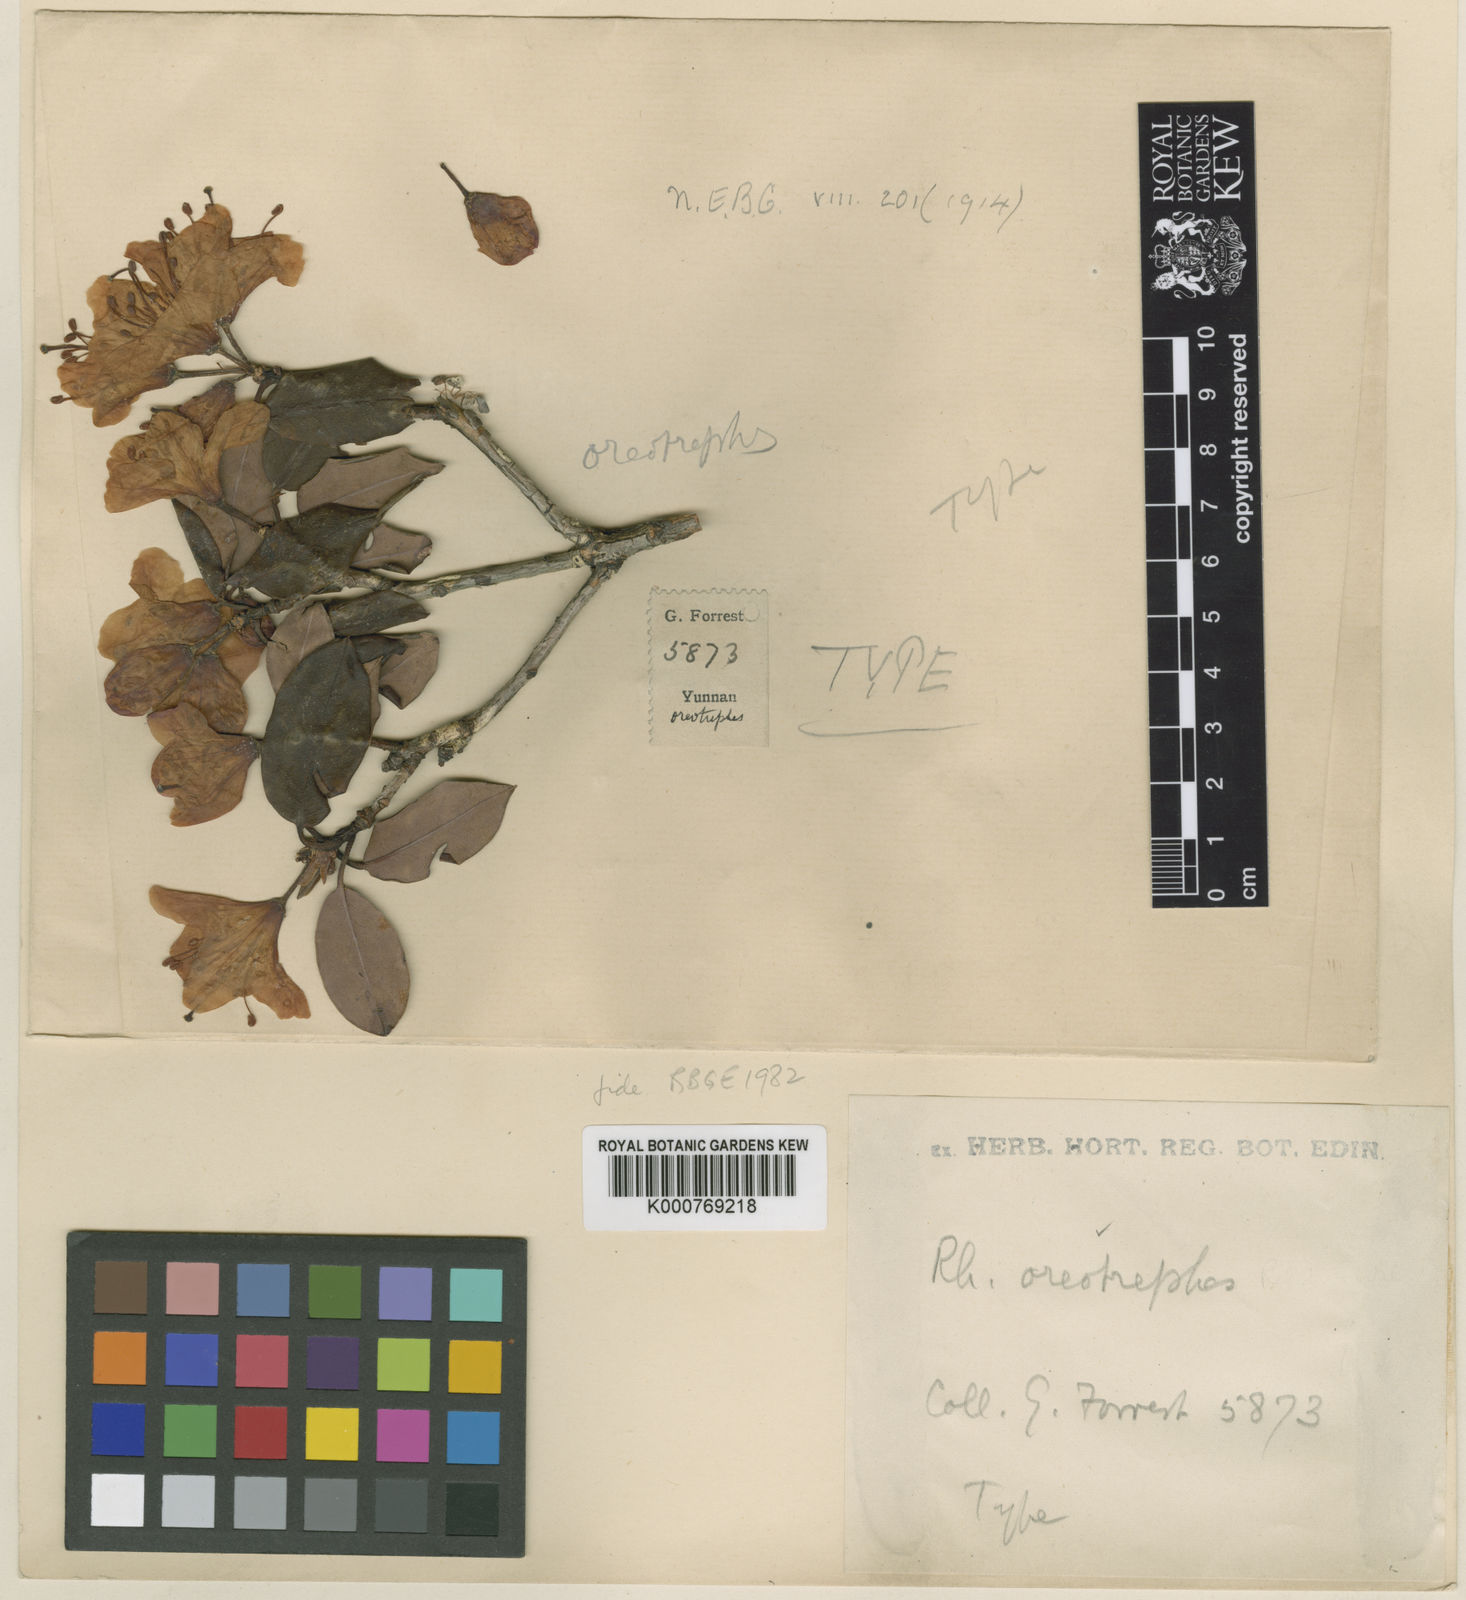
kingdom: Plantae
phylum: Tracheophyta
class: Magnoliopsida
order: Ericales
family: Ericaceae
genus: Rhododendron
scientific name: Rhododendron oreotrephes
